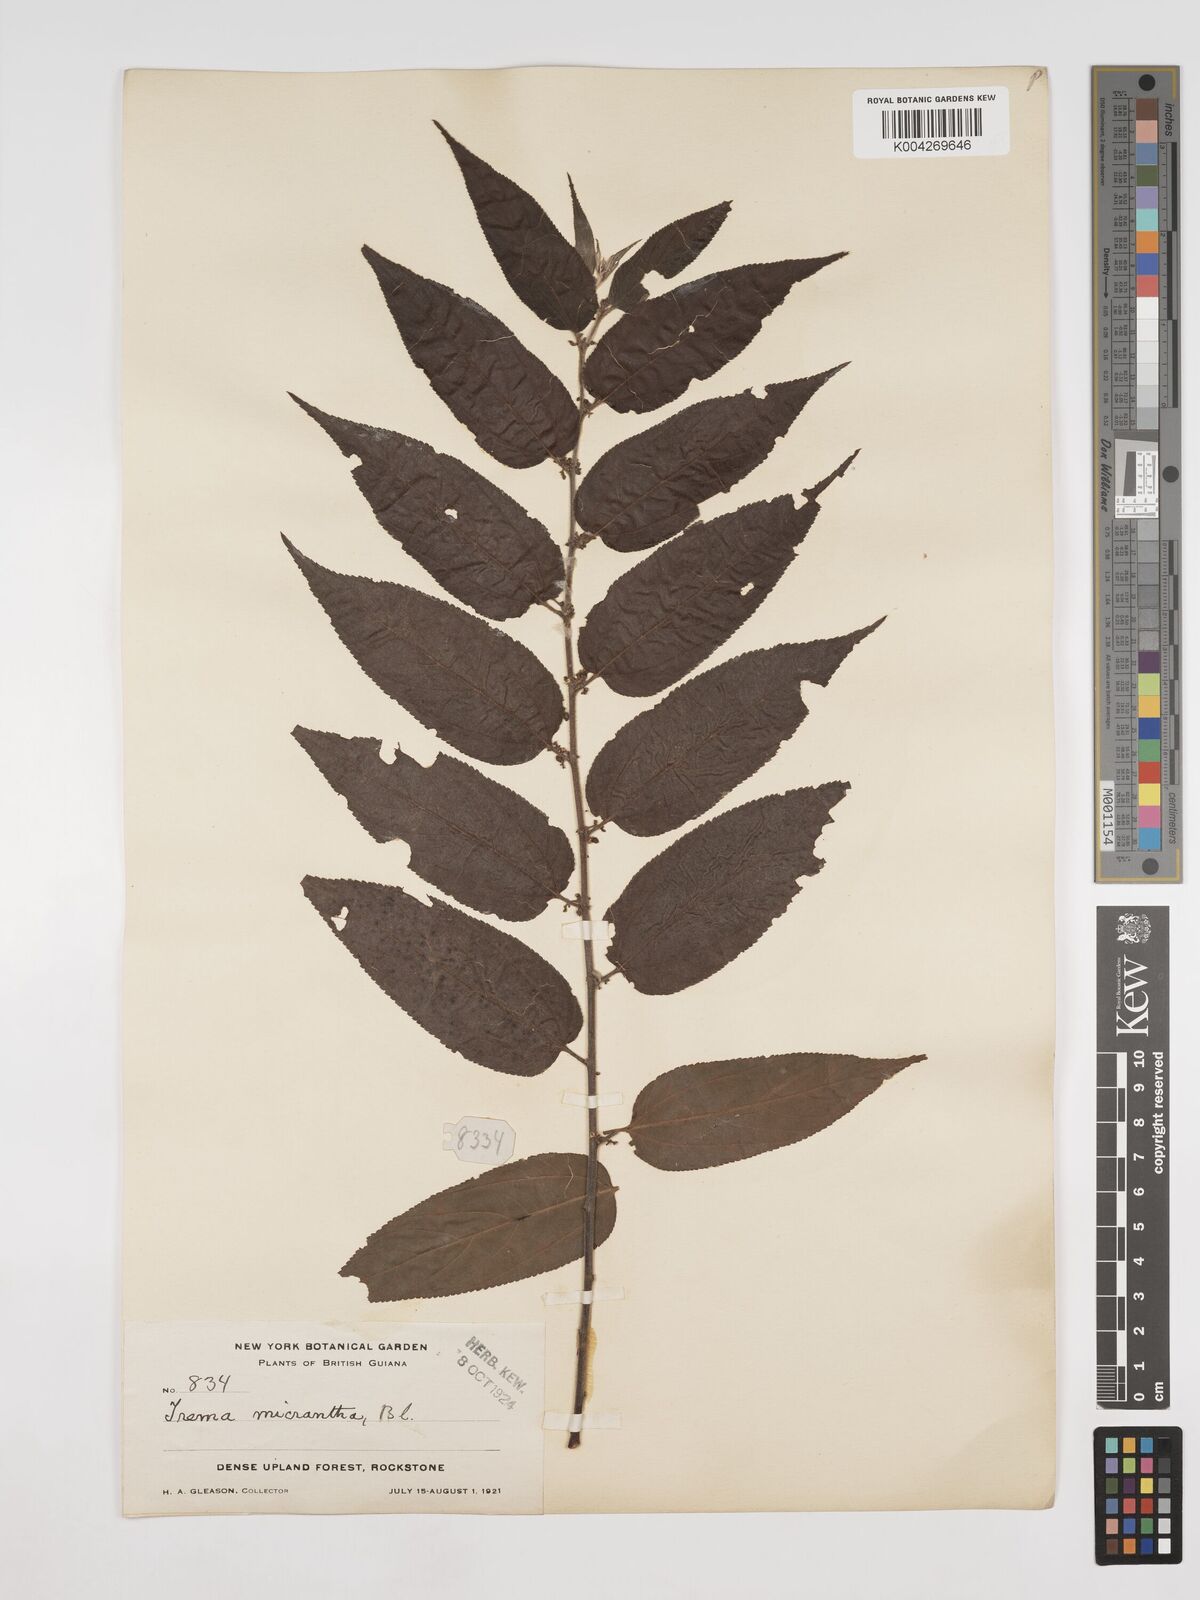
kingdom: Plantae
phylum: Tracheophyta
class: Magnoliopsida
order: Rosales
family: Cannabaceae
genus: Trema
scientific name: Trema micranthum
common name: Jamaican nettletree
